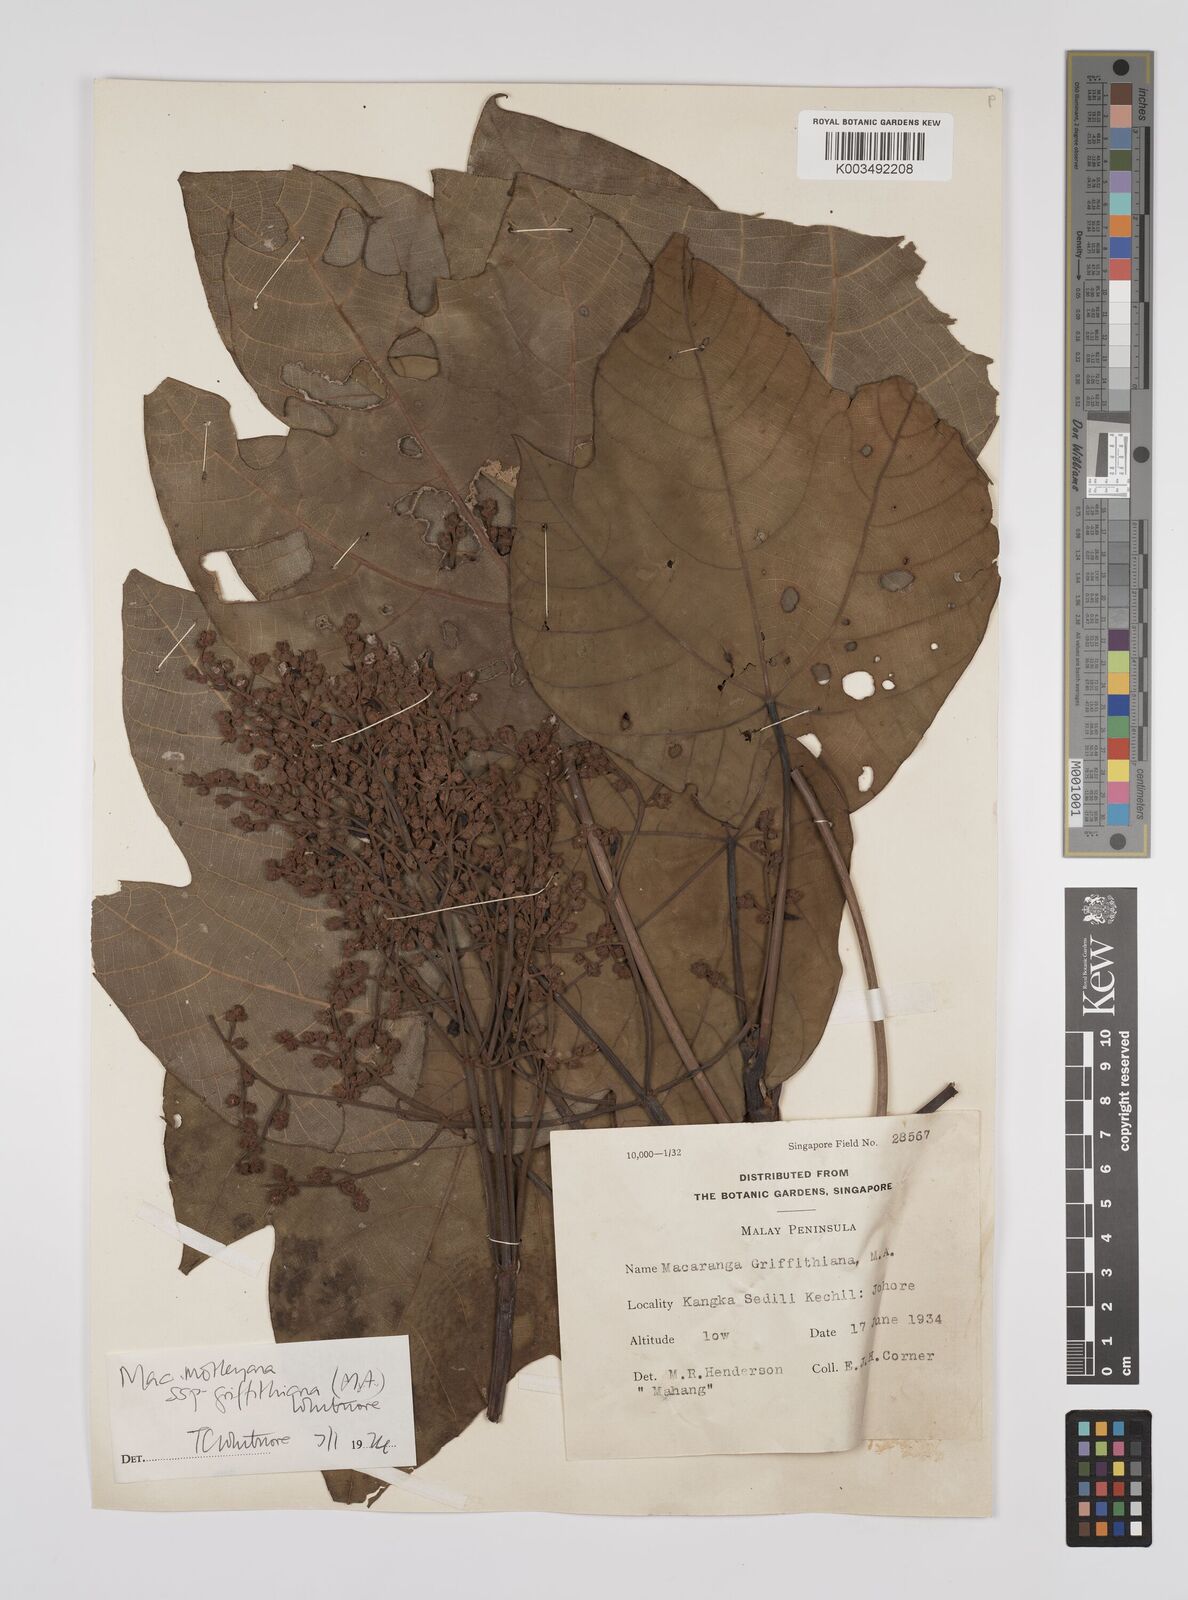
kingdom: Plantae
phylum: Tracheophyta
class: Magnoliopsida
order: Malpighiales
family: Euphorbiaceae
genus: Macaranga
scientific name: Macaranga griffithiana
